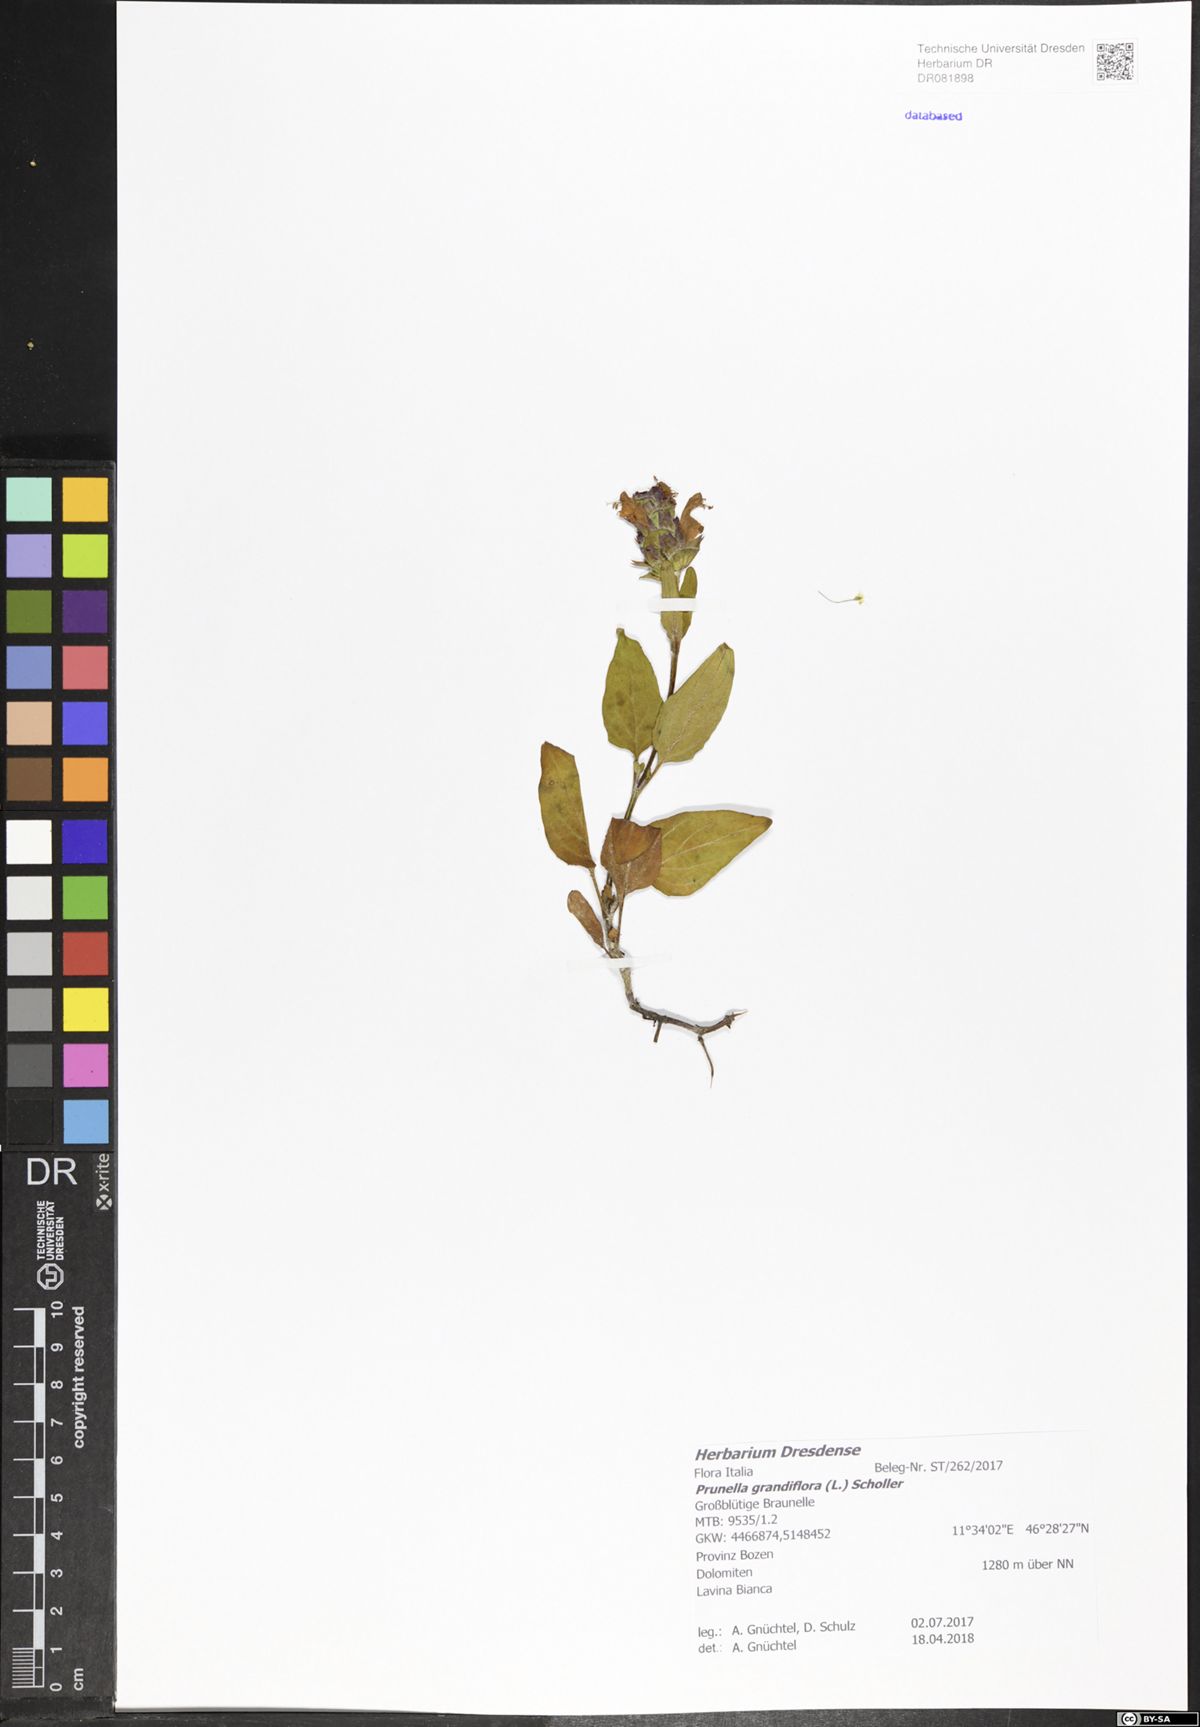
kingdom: Plantae
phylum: Tracheophyta
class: Magnoliopsida
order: Lamiales
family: Lamiaceae
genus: Prunella
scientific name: Prunella grandiflora
